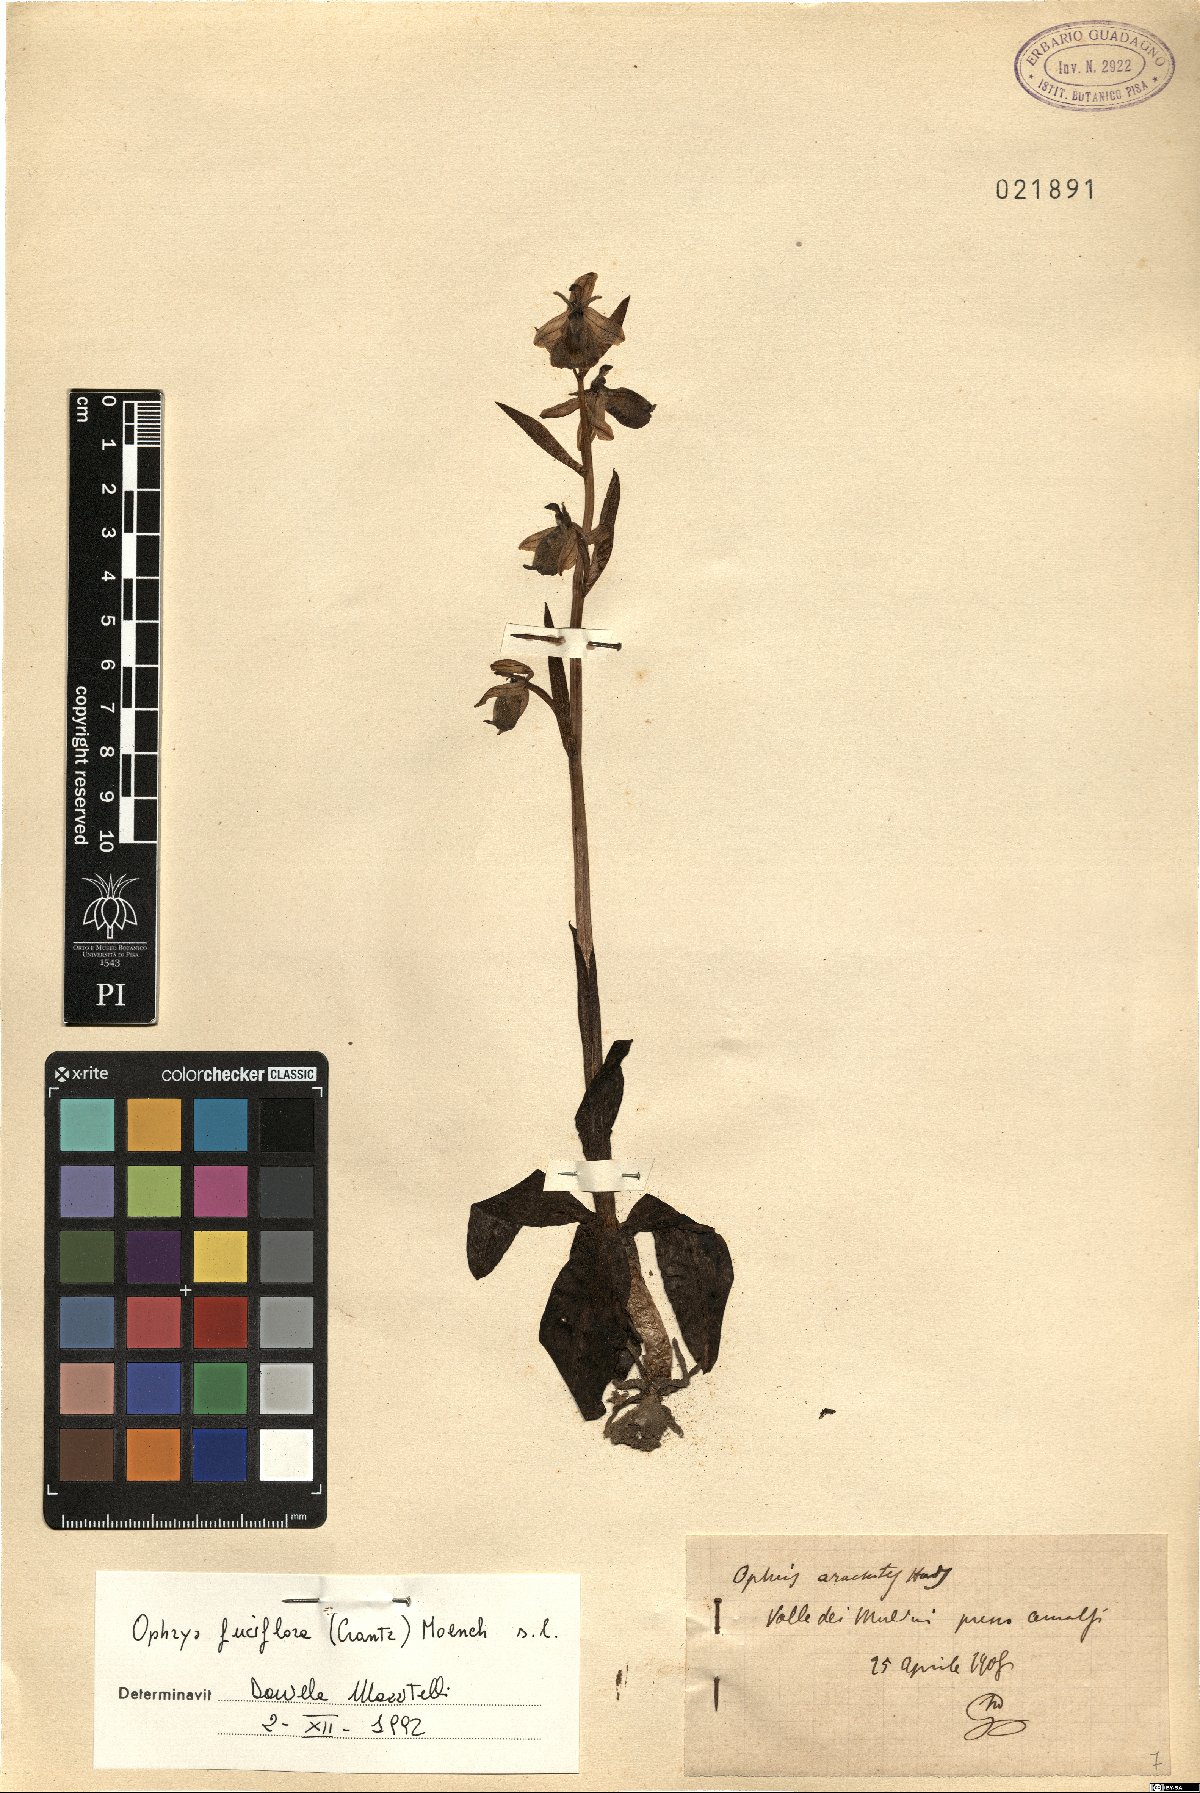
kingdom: Plantae
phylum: Tracheophyta
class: Liliopsida
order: Asparagales
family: Orchidaceae
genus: Ophrys
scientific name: Ophrys holosericea
